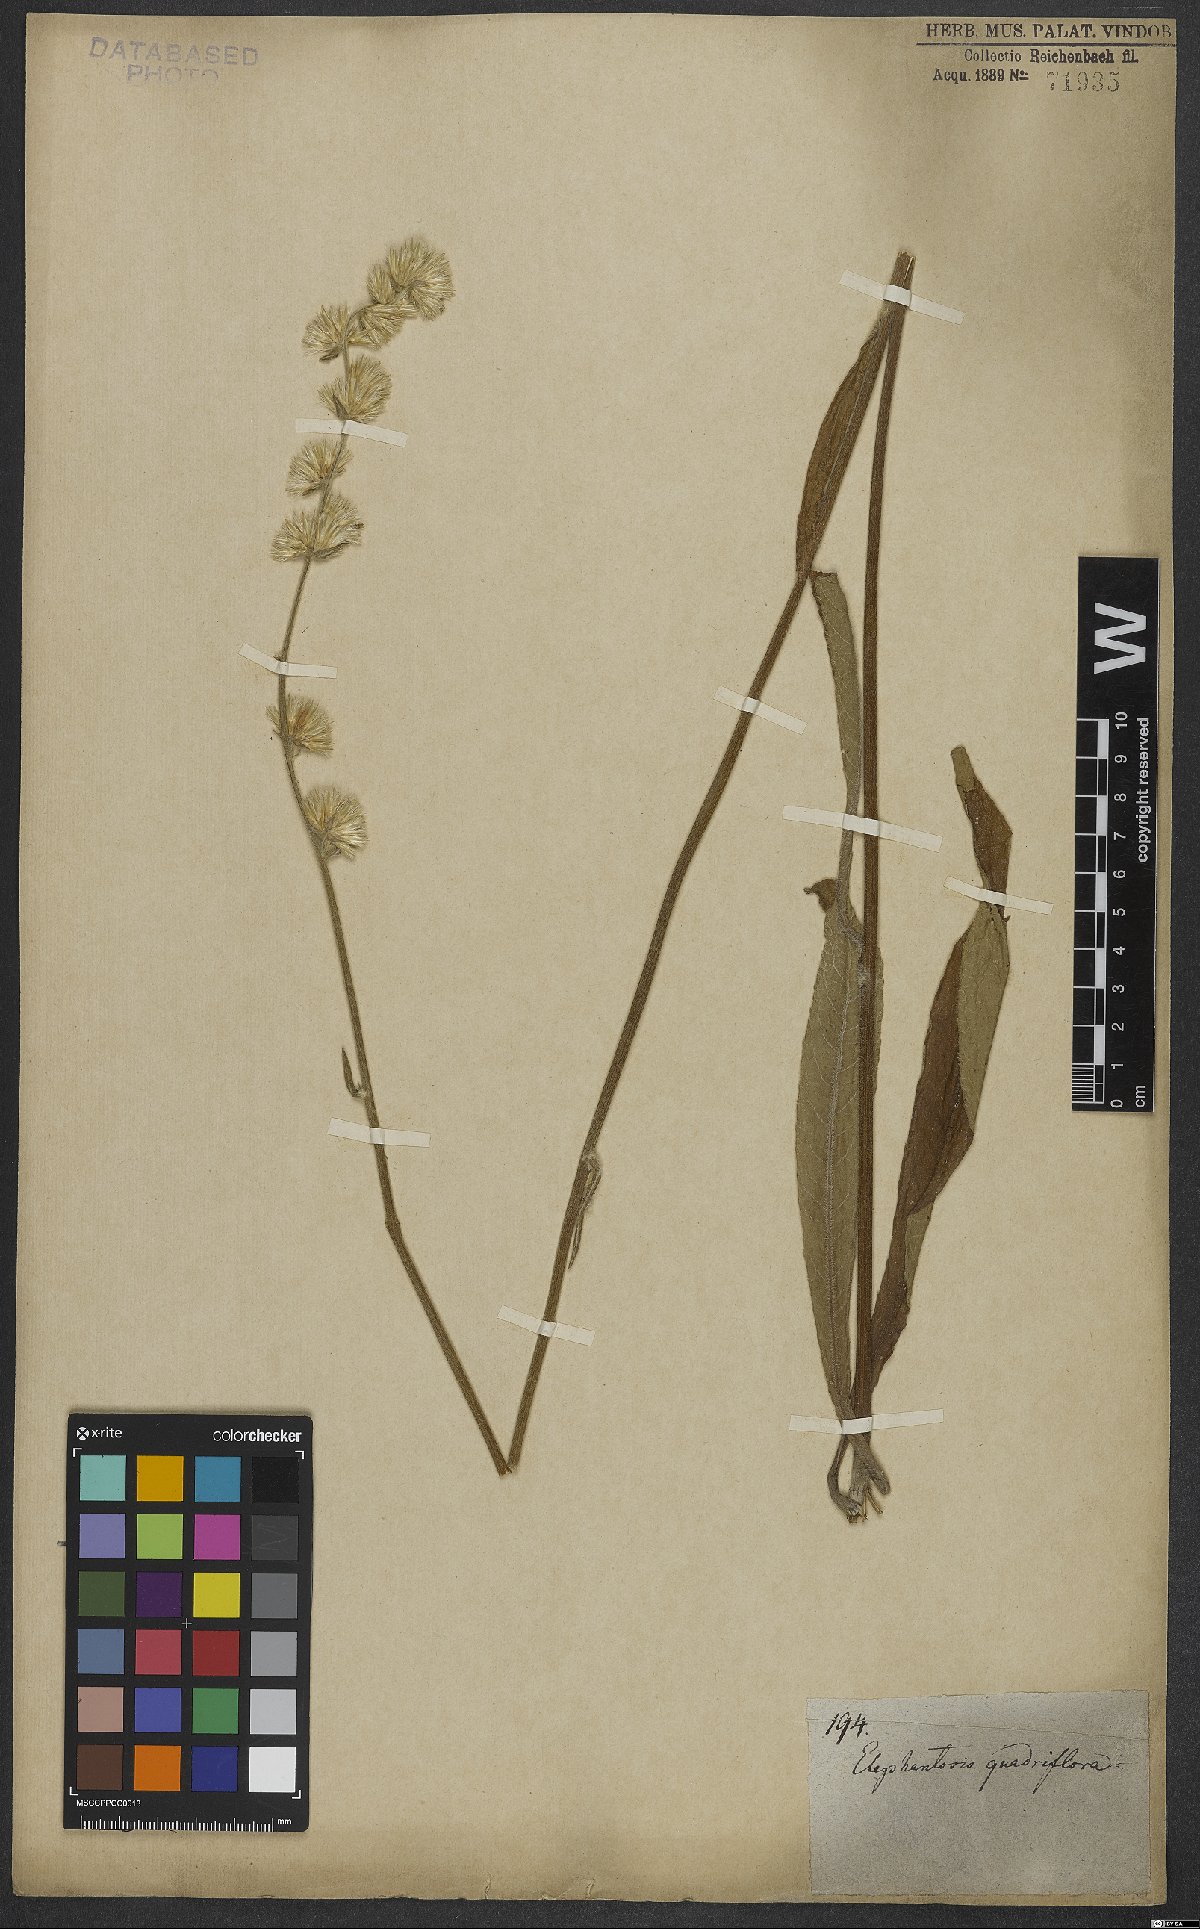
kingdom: Plantae
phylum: Tracheophyta
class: Magnoliopsida
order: Asterales
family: Asteraceae
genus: Orthopappus
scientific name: Orthopappus angustifolius
